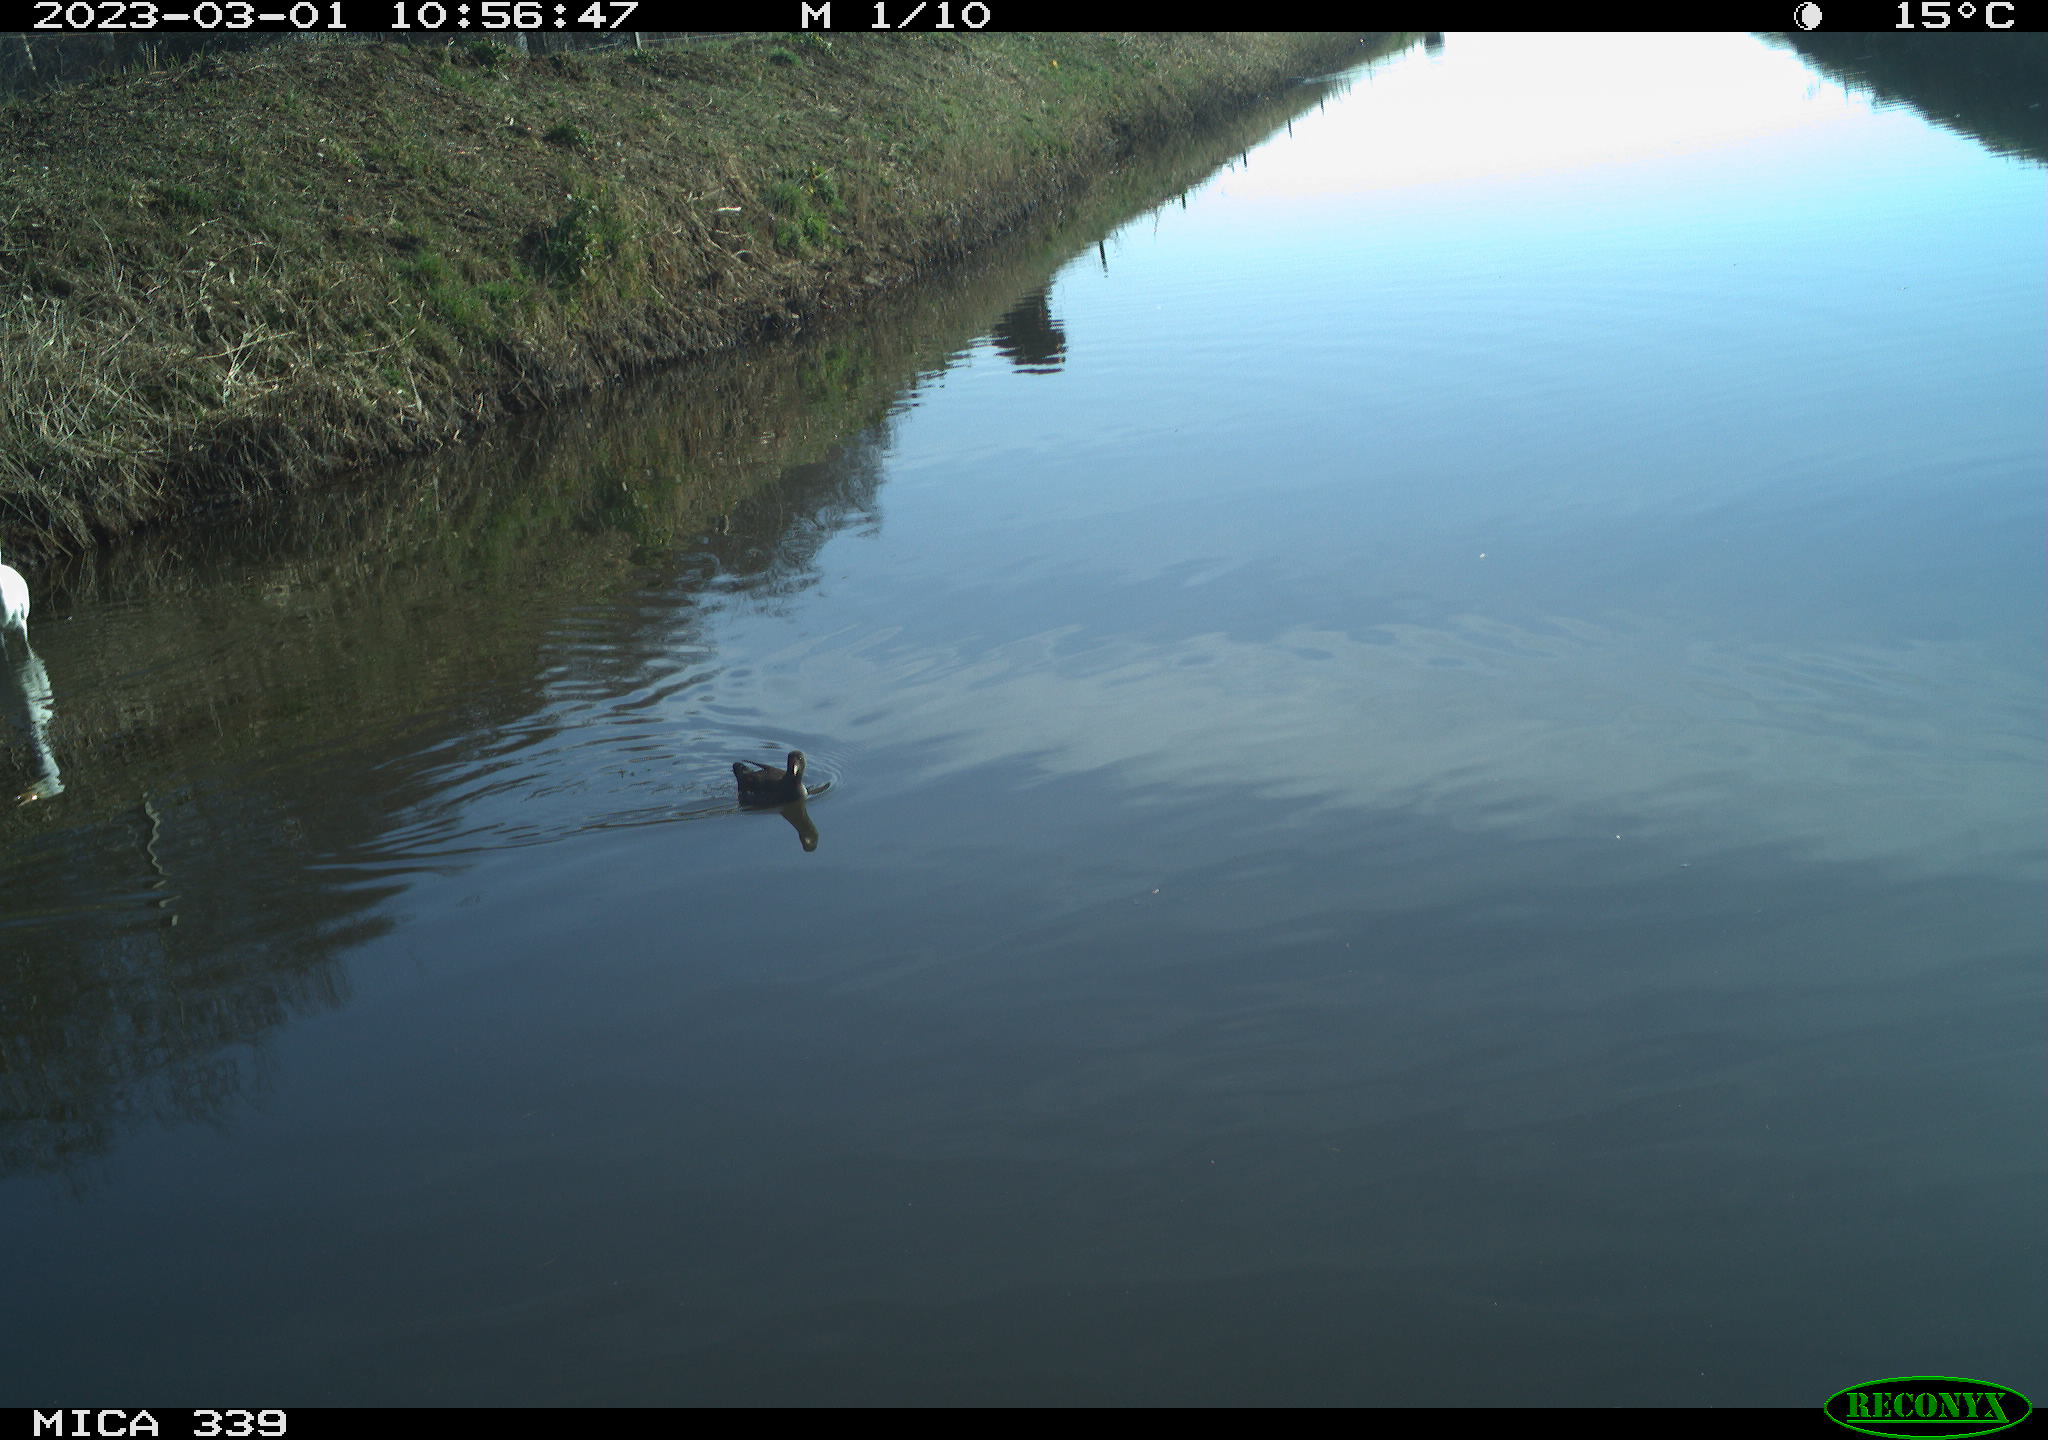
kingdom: Animalia
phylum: Chordata
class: Aves
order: Gruiformes
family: Rallidae
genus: Gallinula
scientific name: Gallinula chloropus
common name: Common moorhen
